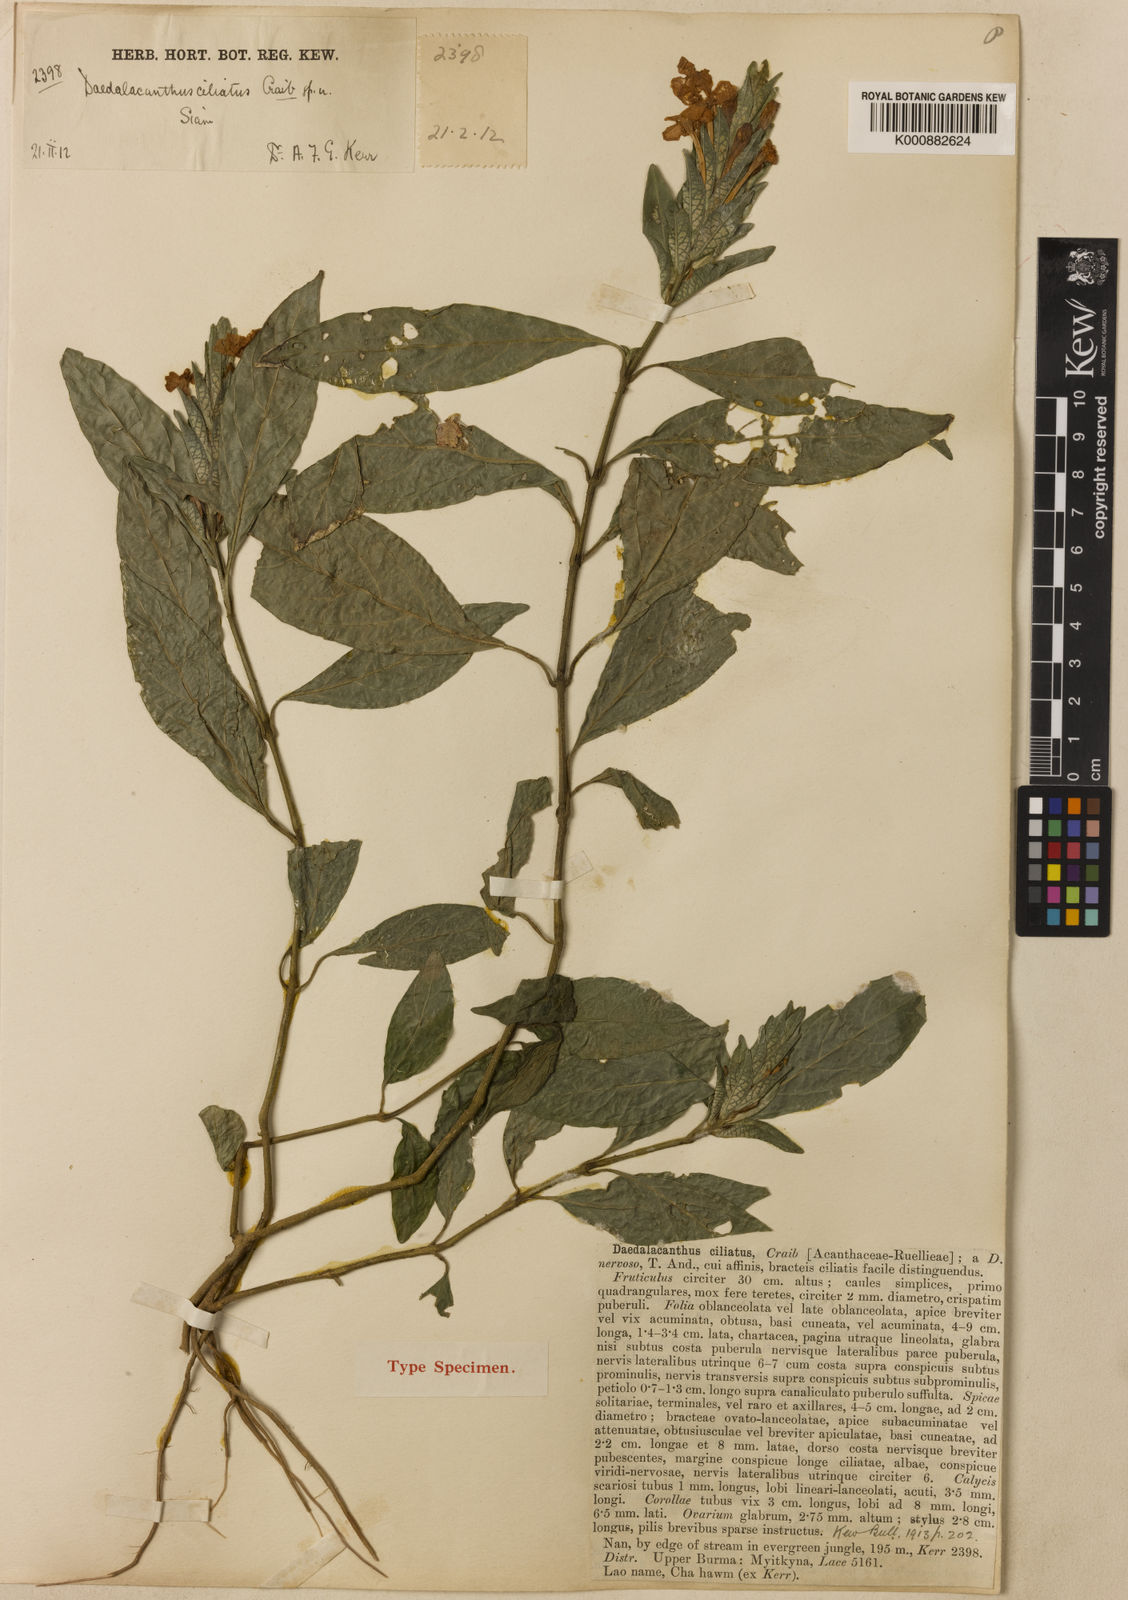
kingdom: Plantae
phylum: Tracheophyta
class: Magnoliopsida
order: Lamiales
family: Acanthaceae
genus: Eranthemum
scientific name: Eranthemum ciliatum
